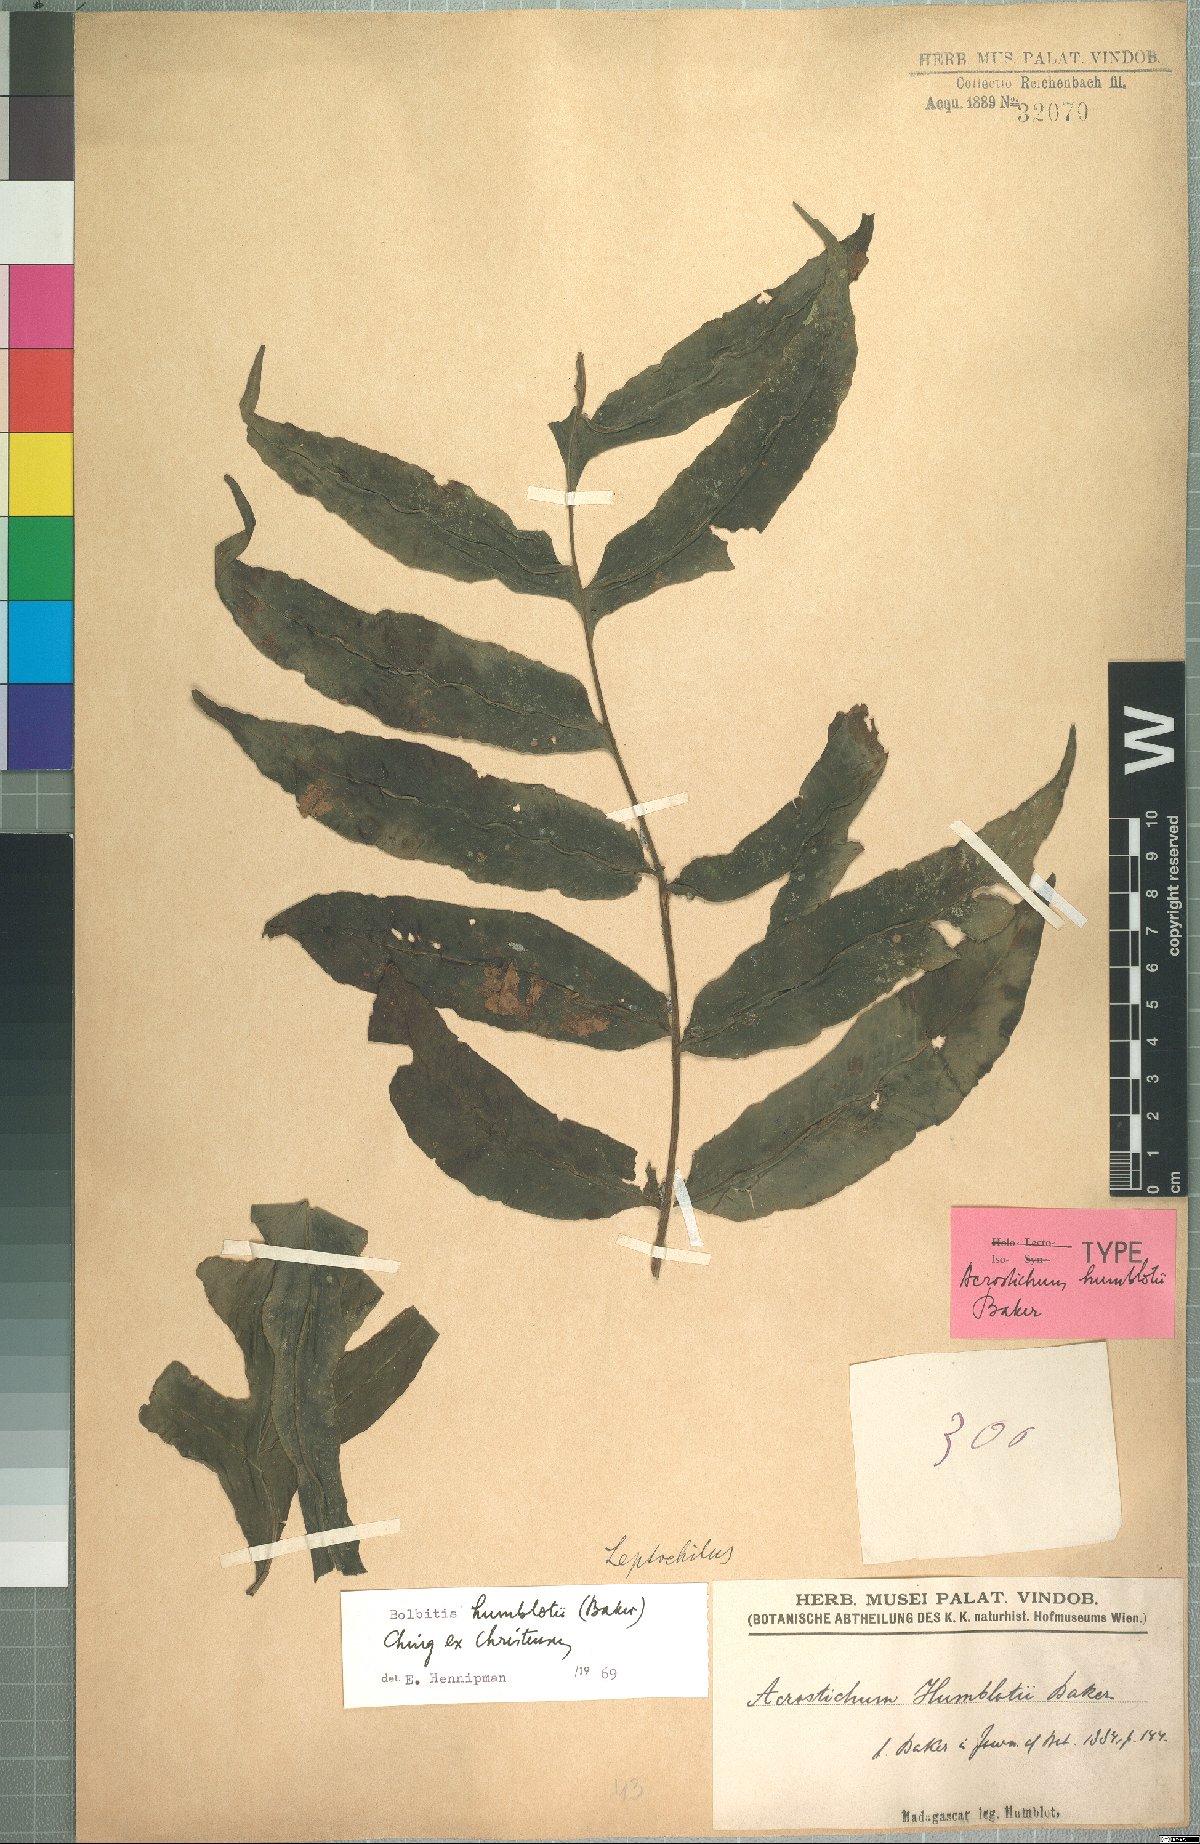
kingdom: Plantae
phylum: Tracheophyta
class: Polypodiopsida
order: Polypodiales
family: Dryopteridaceae
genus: Bolbitis
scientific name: Bolbitis humblotii
